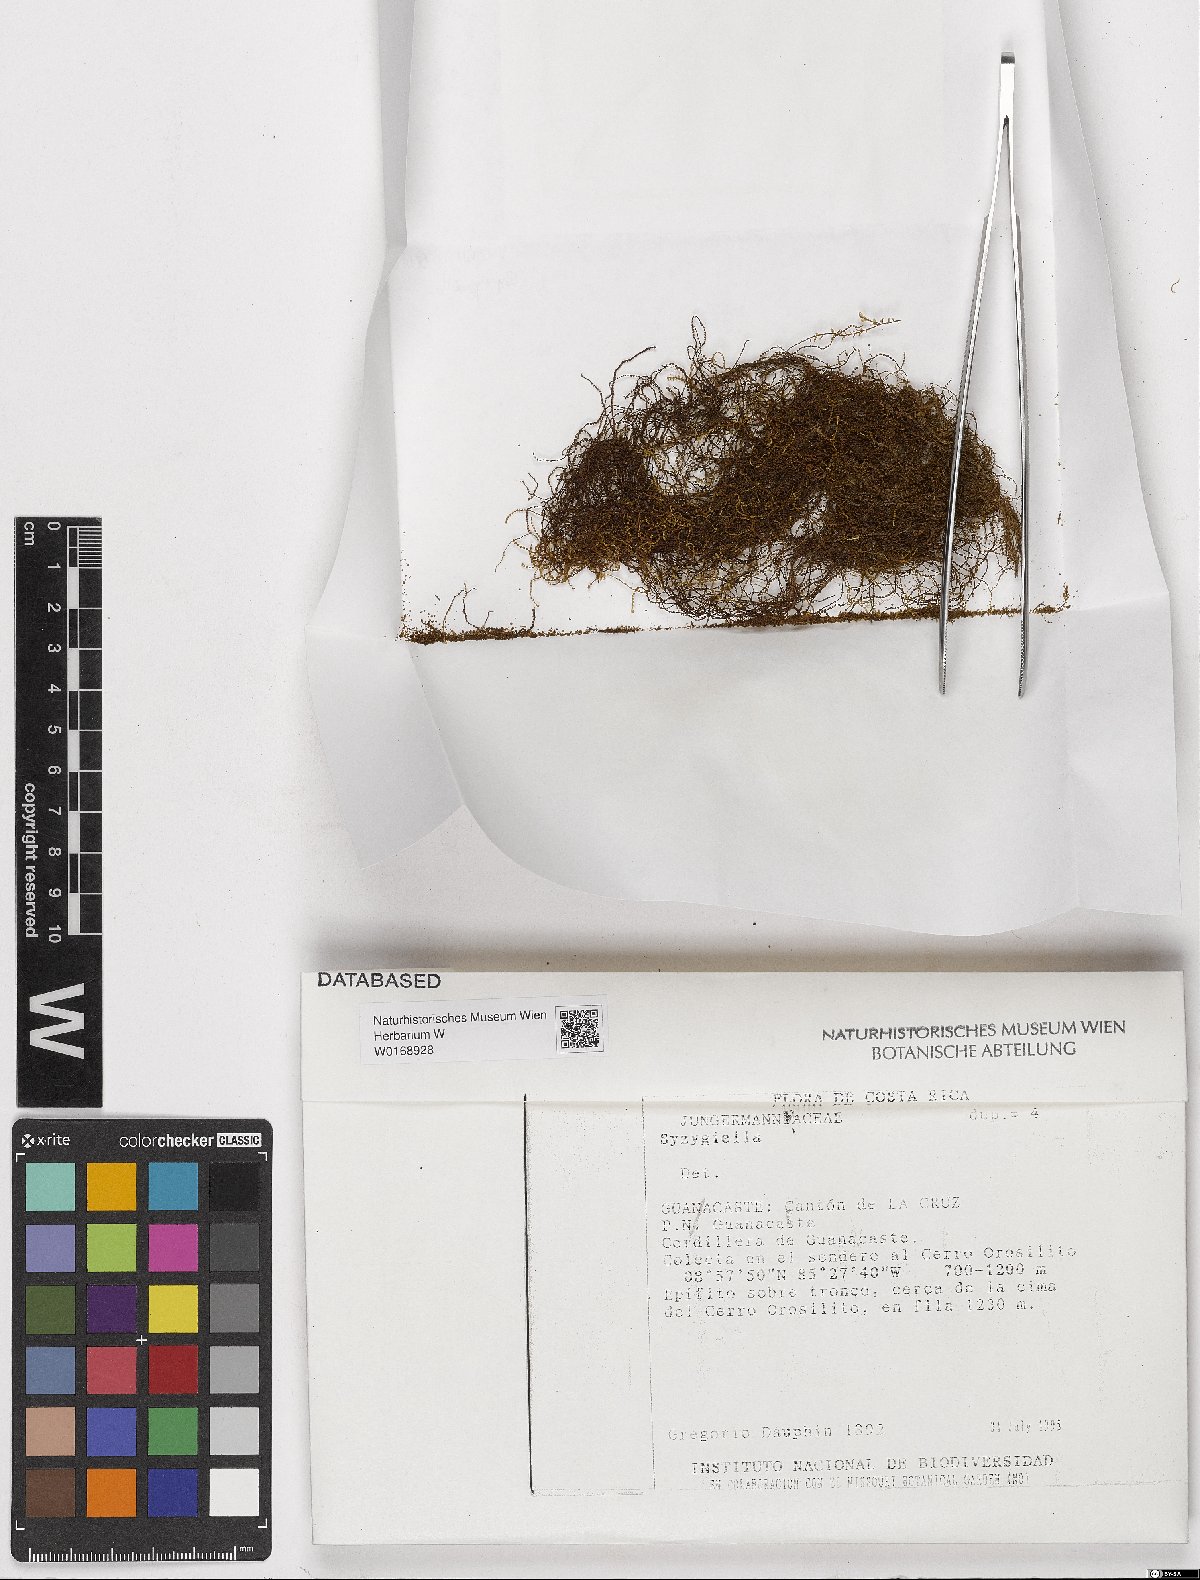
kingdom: Plantae
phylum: Marchantiophyta
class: Jungermanniopsida
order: Jungermanniales
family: Adelanthaceae
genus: Syzygiella
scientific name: Syzygiella
